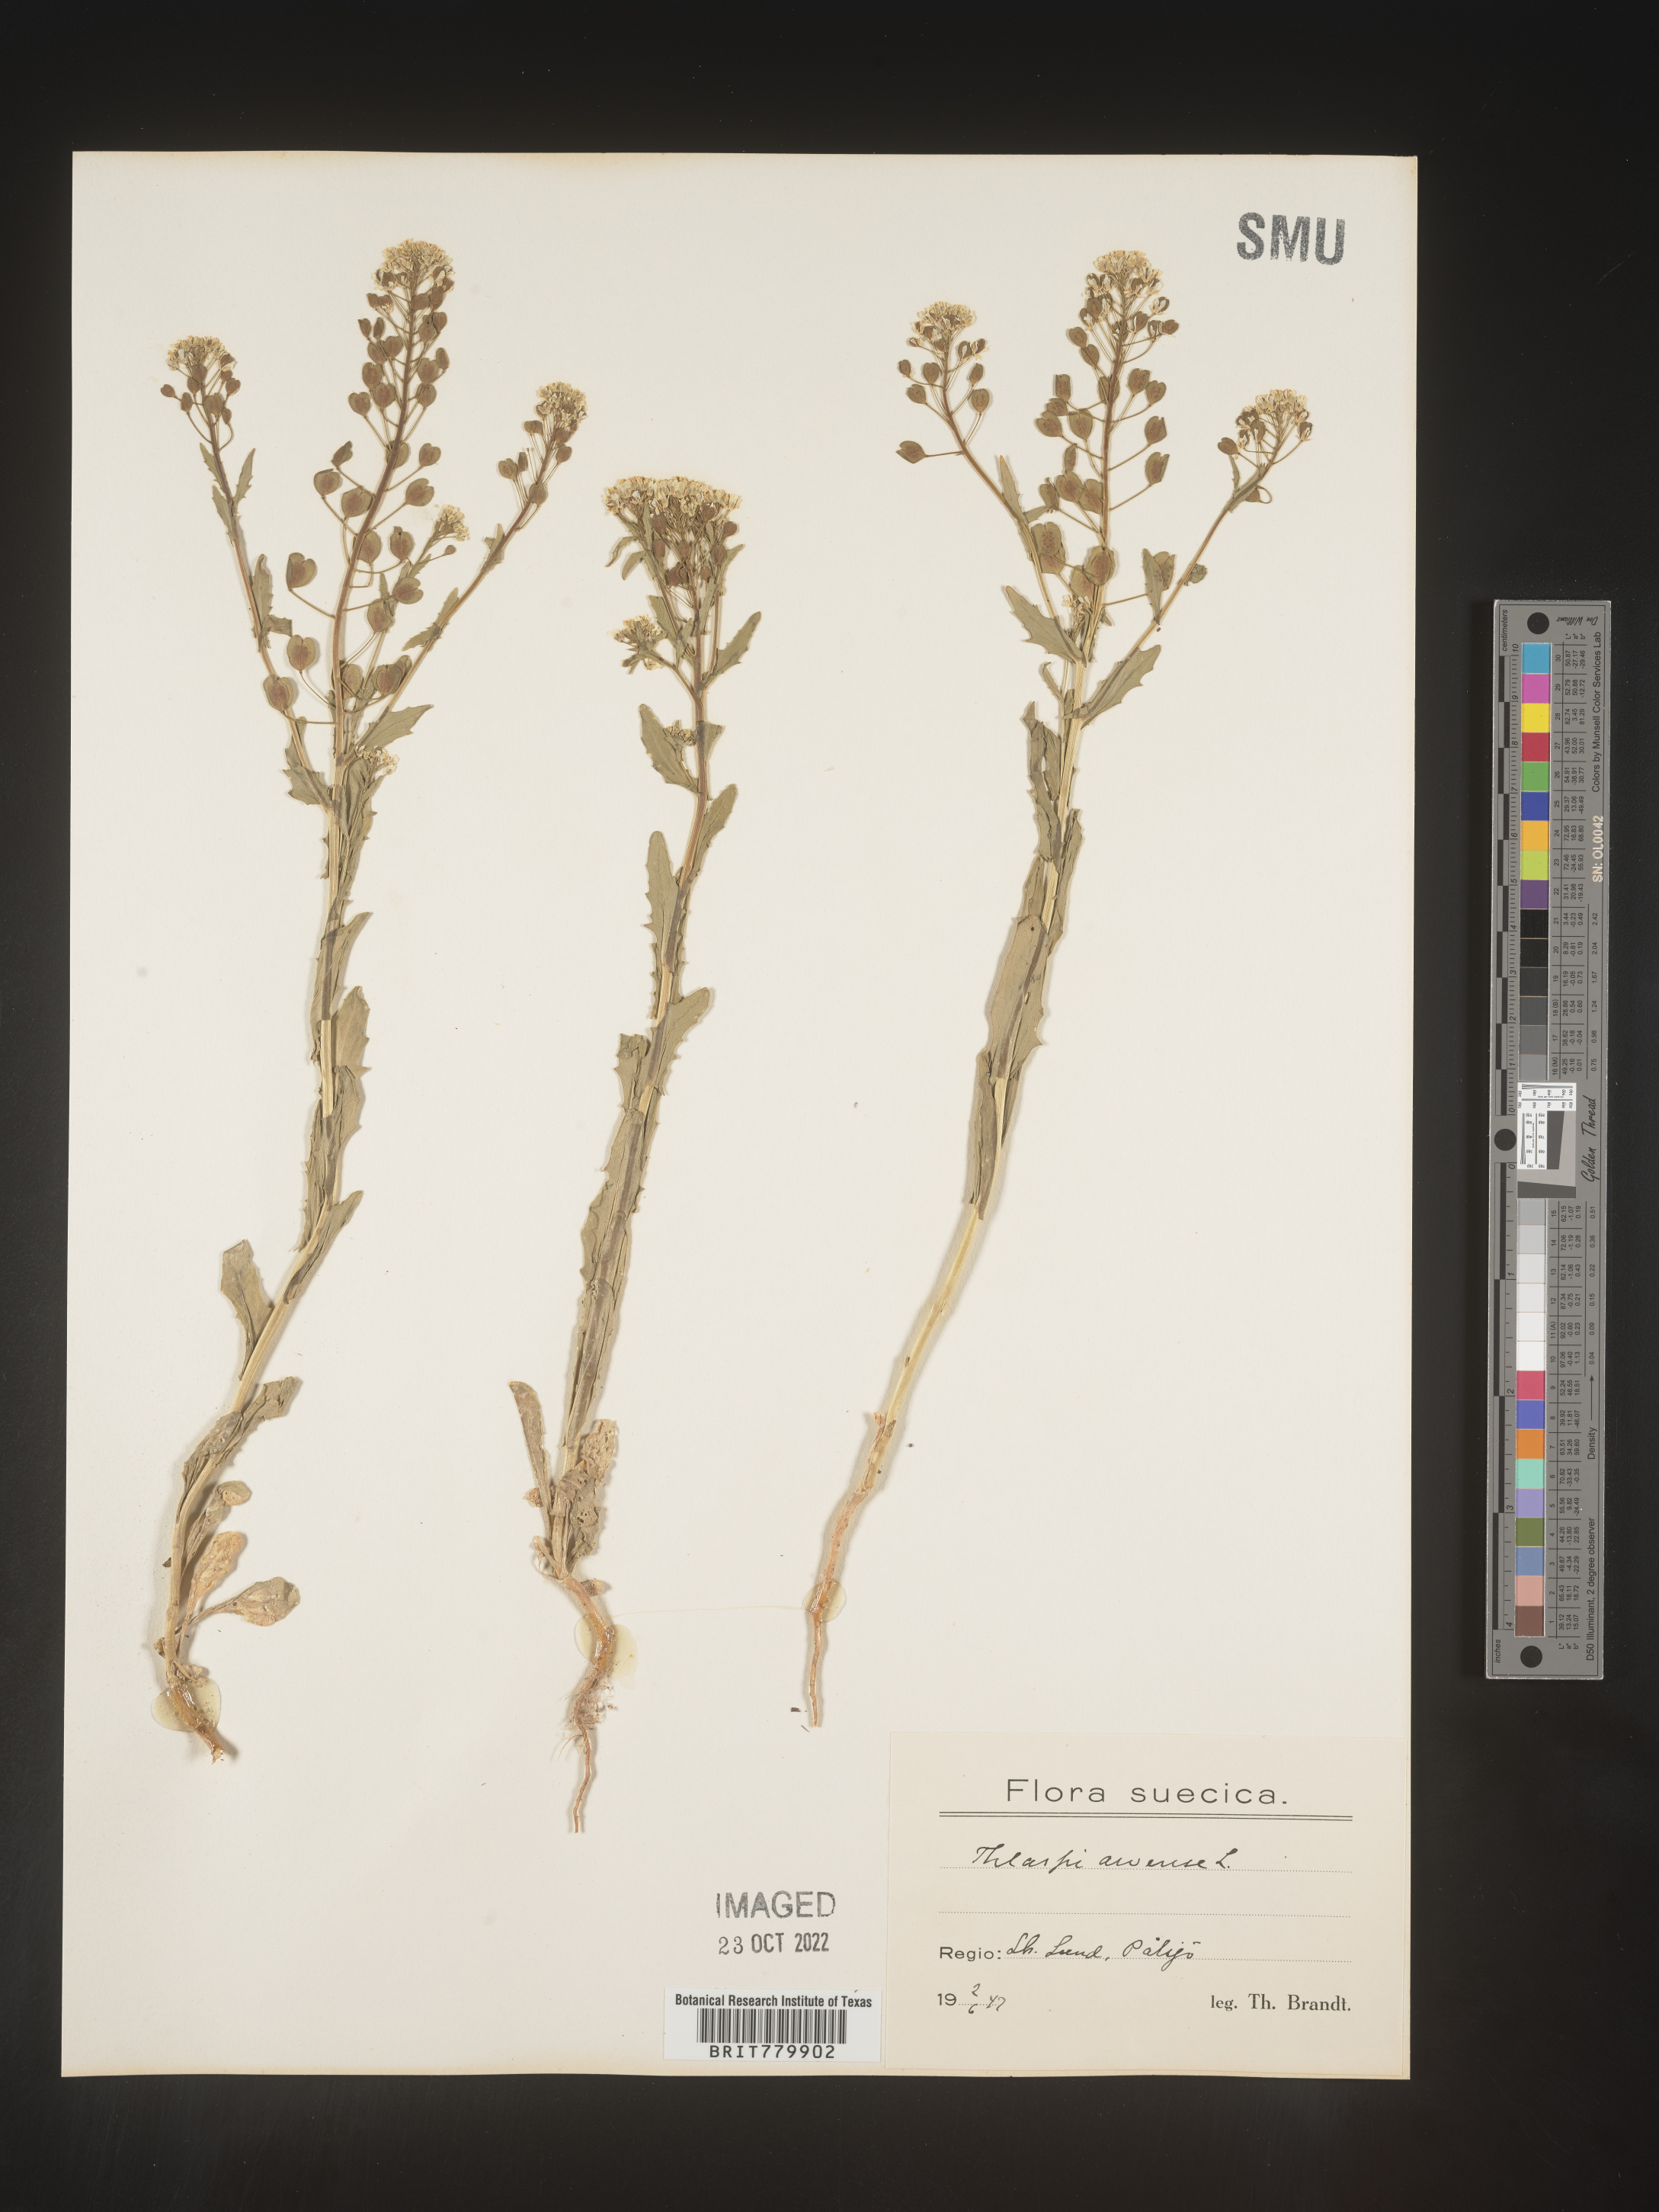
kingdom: Plantae
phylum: Tracheophyta
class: Magnoliopsida
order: Brassicales
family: Brassicaceae
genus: Thlaspi
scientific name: Thlaspi
